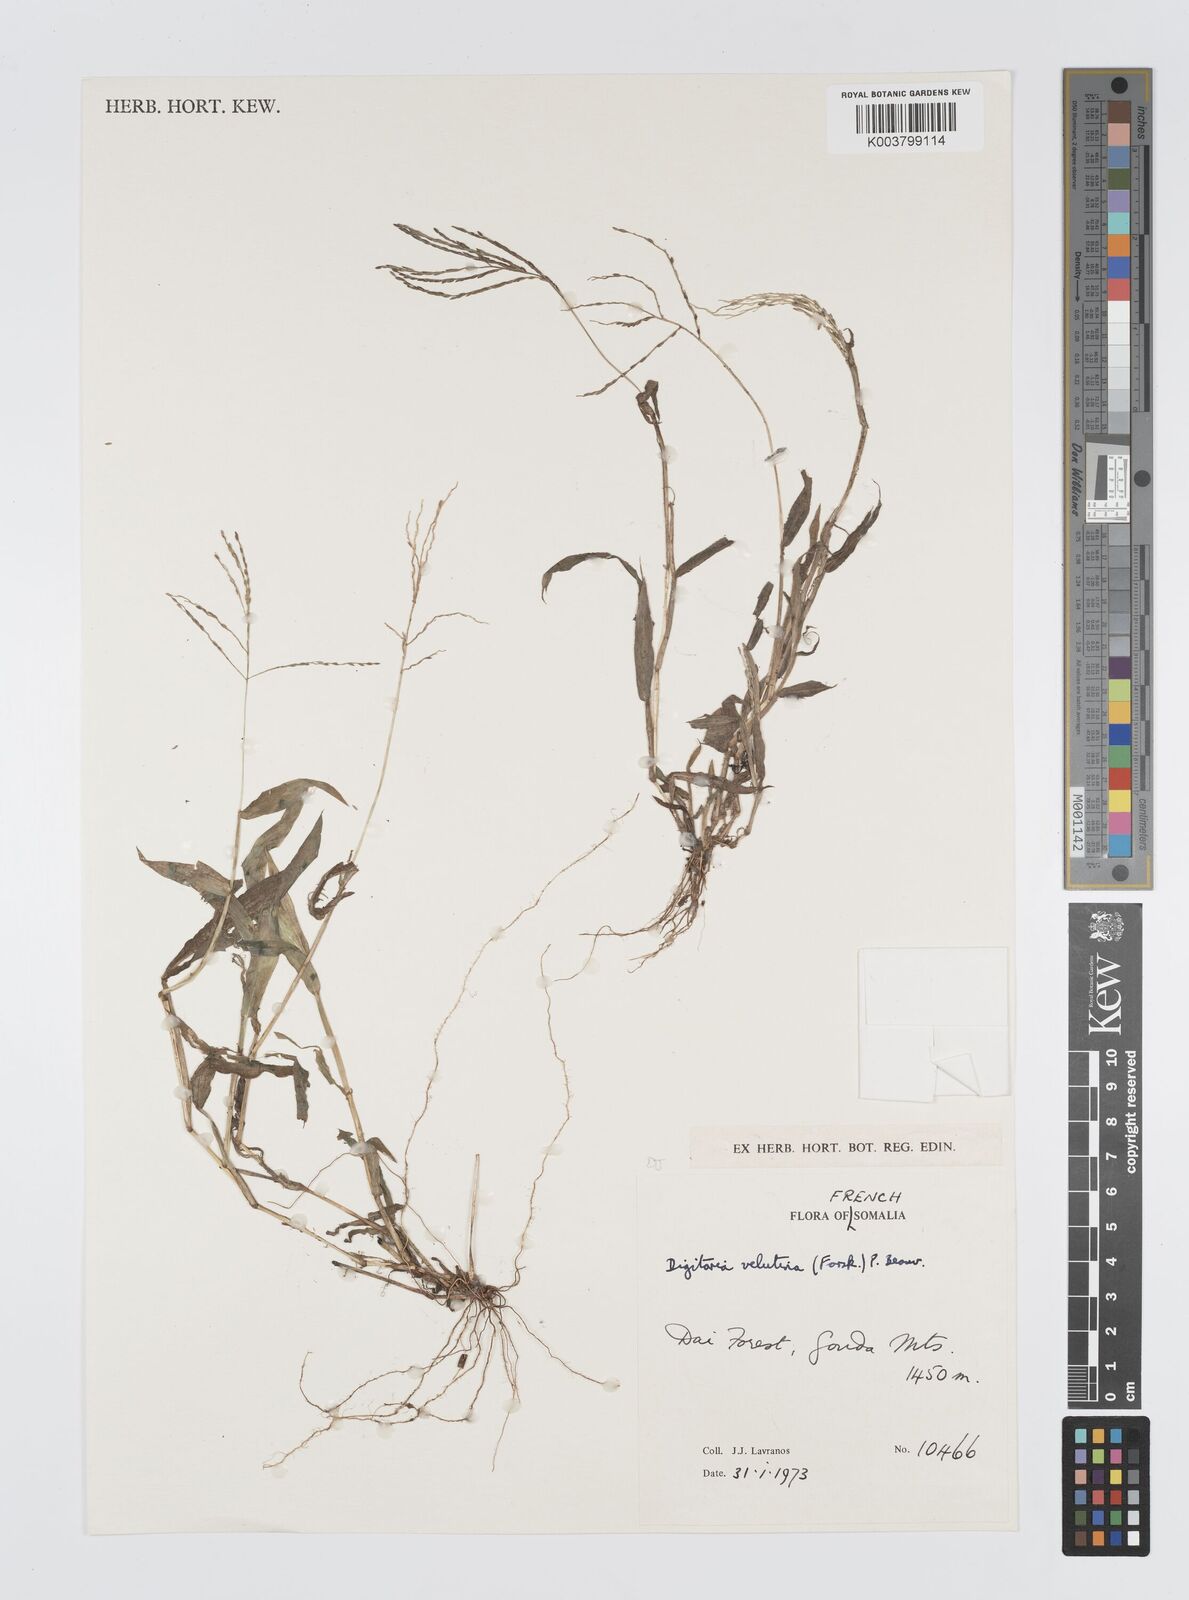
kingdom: Plantae
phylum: Tracheophyta
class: Liliopsida
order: Poales
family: Poaceae
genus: Digitaria
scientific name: Digitaria velutina
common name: Long-plume finger grass
